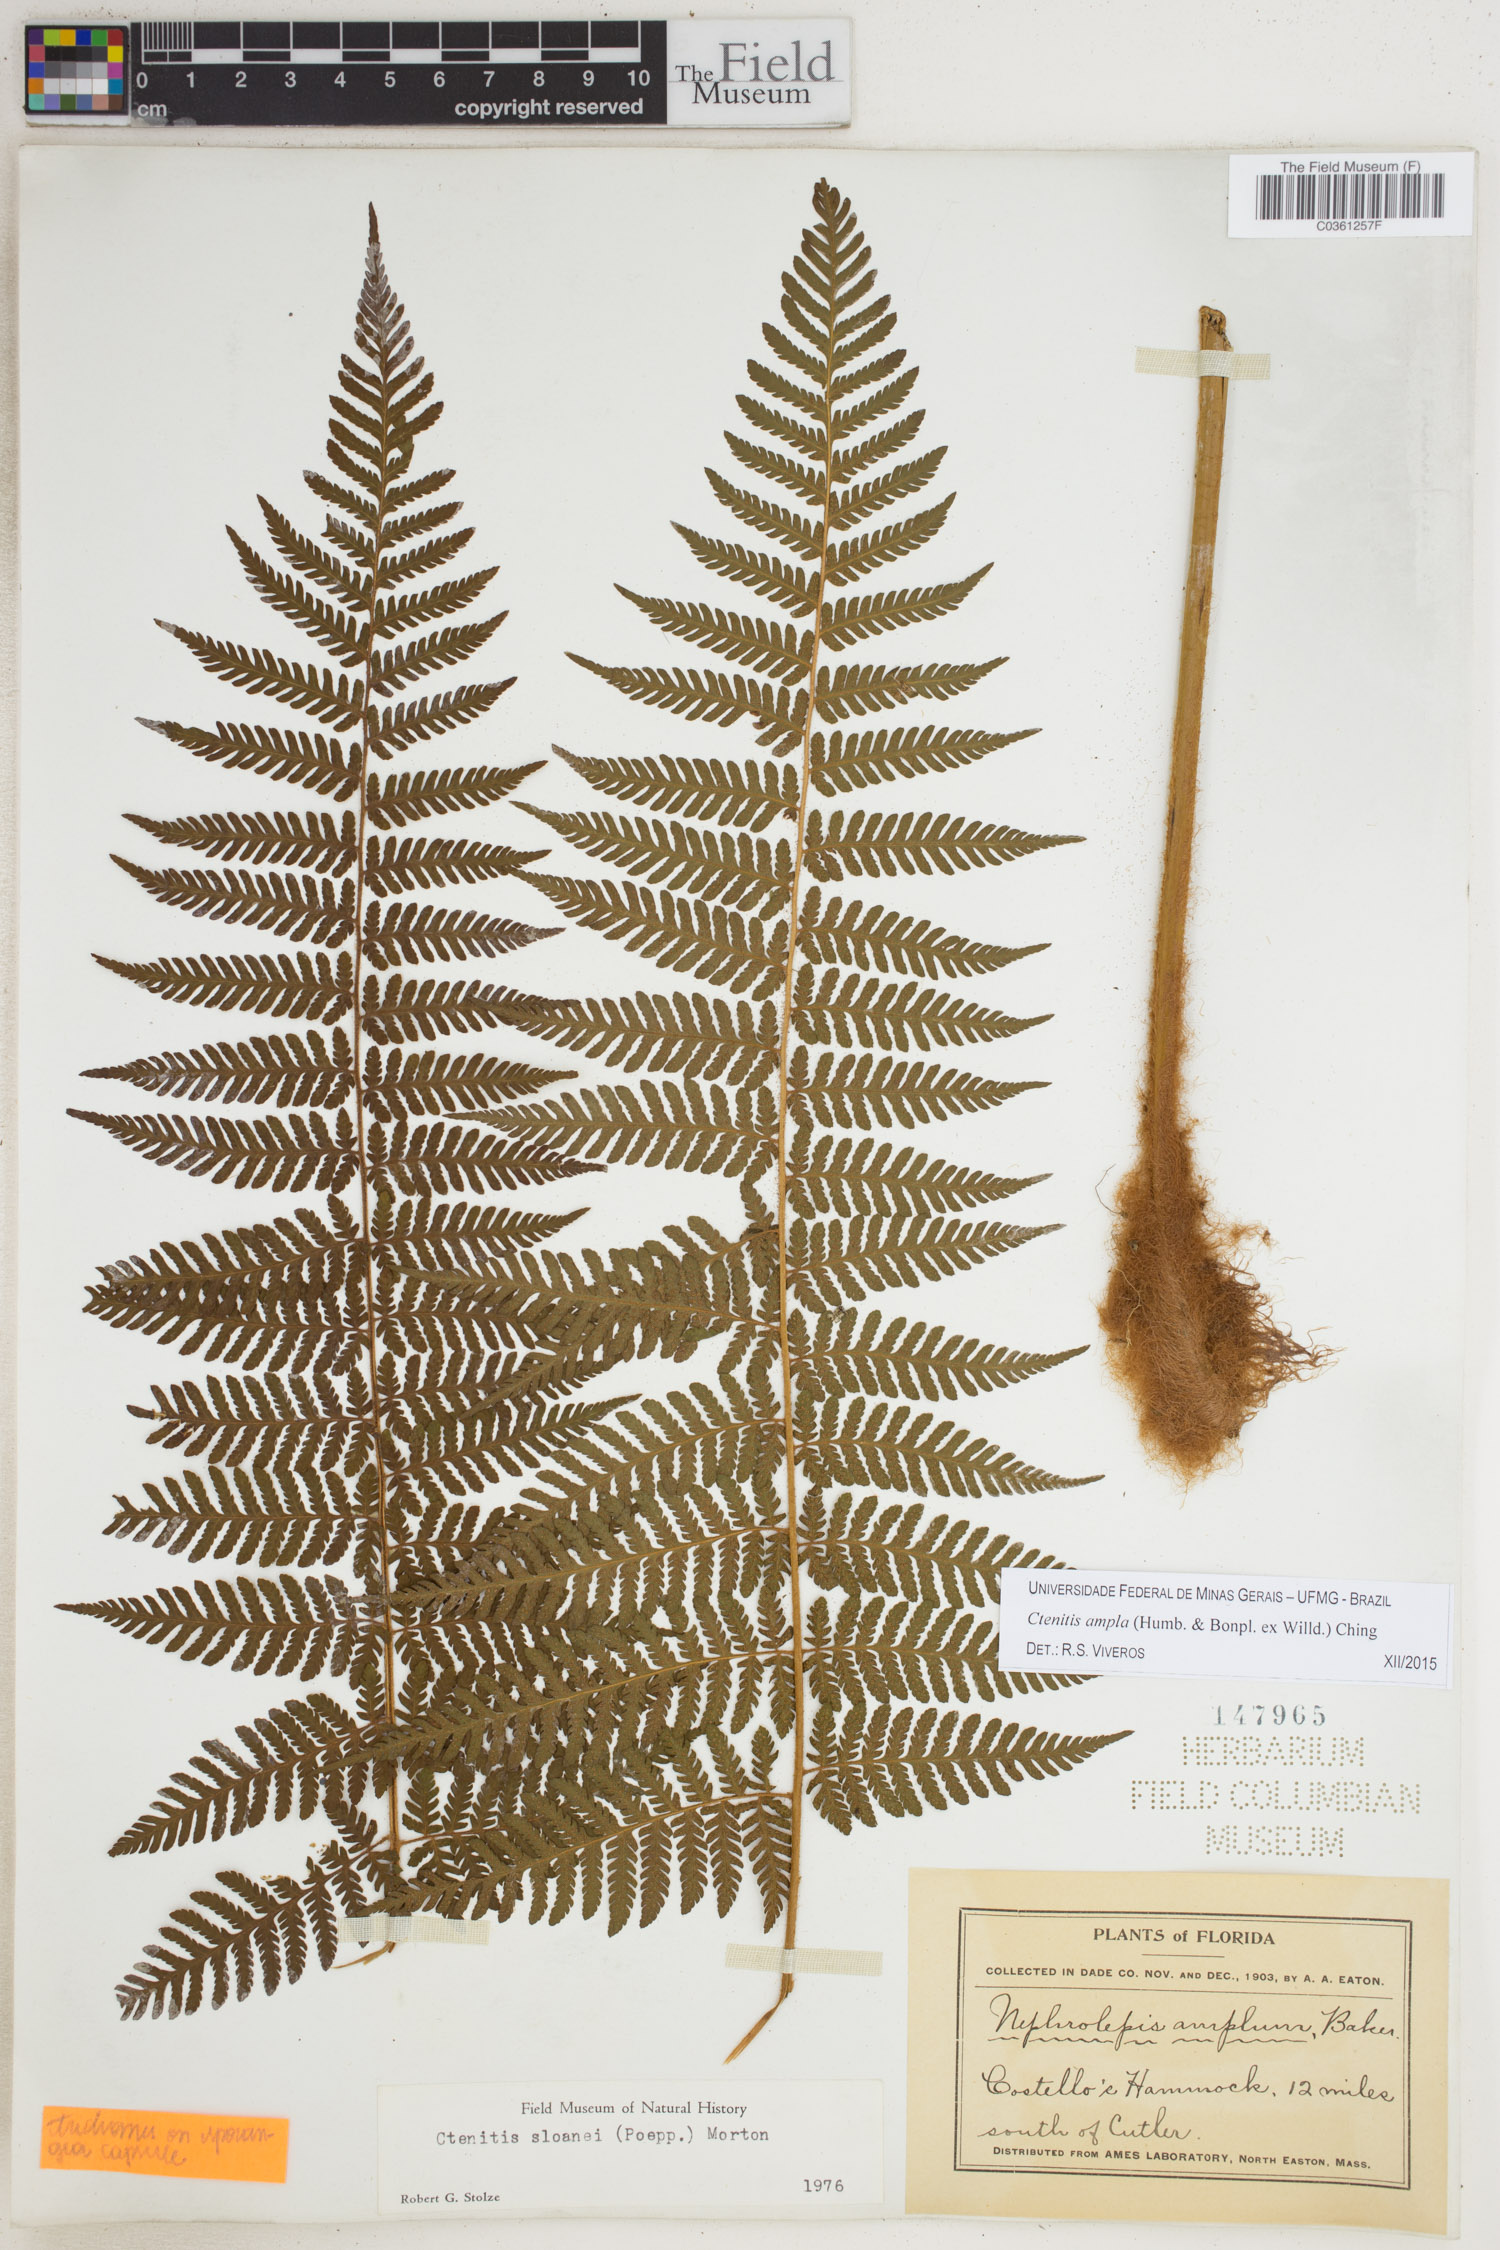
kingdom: Plantae
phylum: Tracheophyta
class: Polypodiopsida
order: Polypodiales
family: Dryopteridaceae
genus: Ctenitis
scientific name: Ctenitis sloanei
